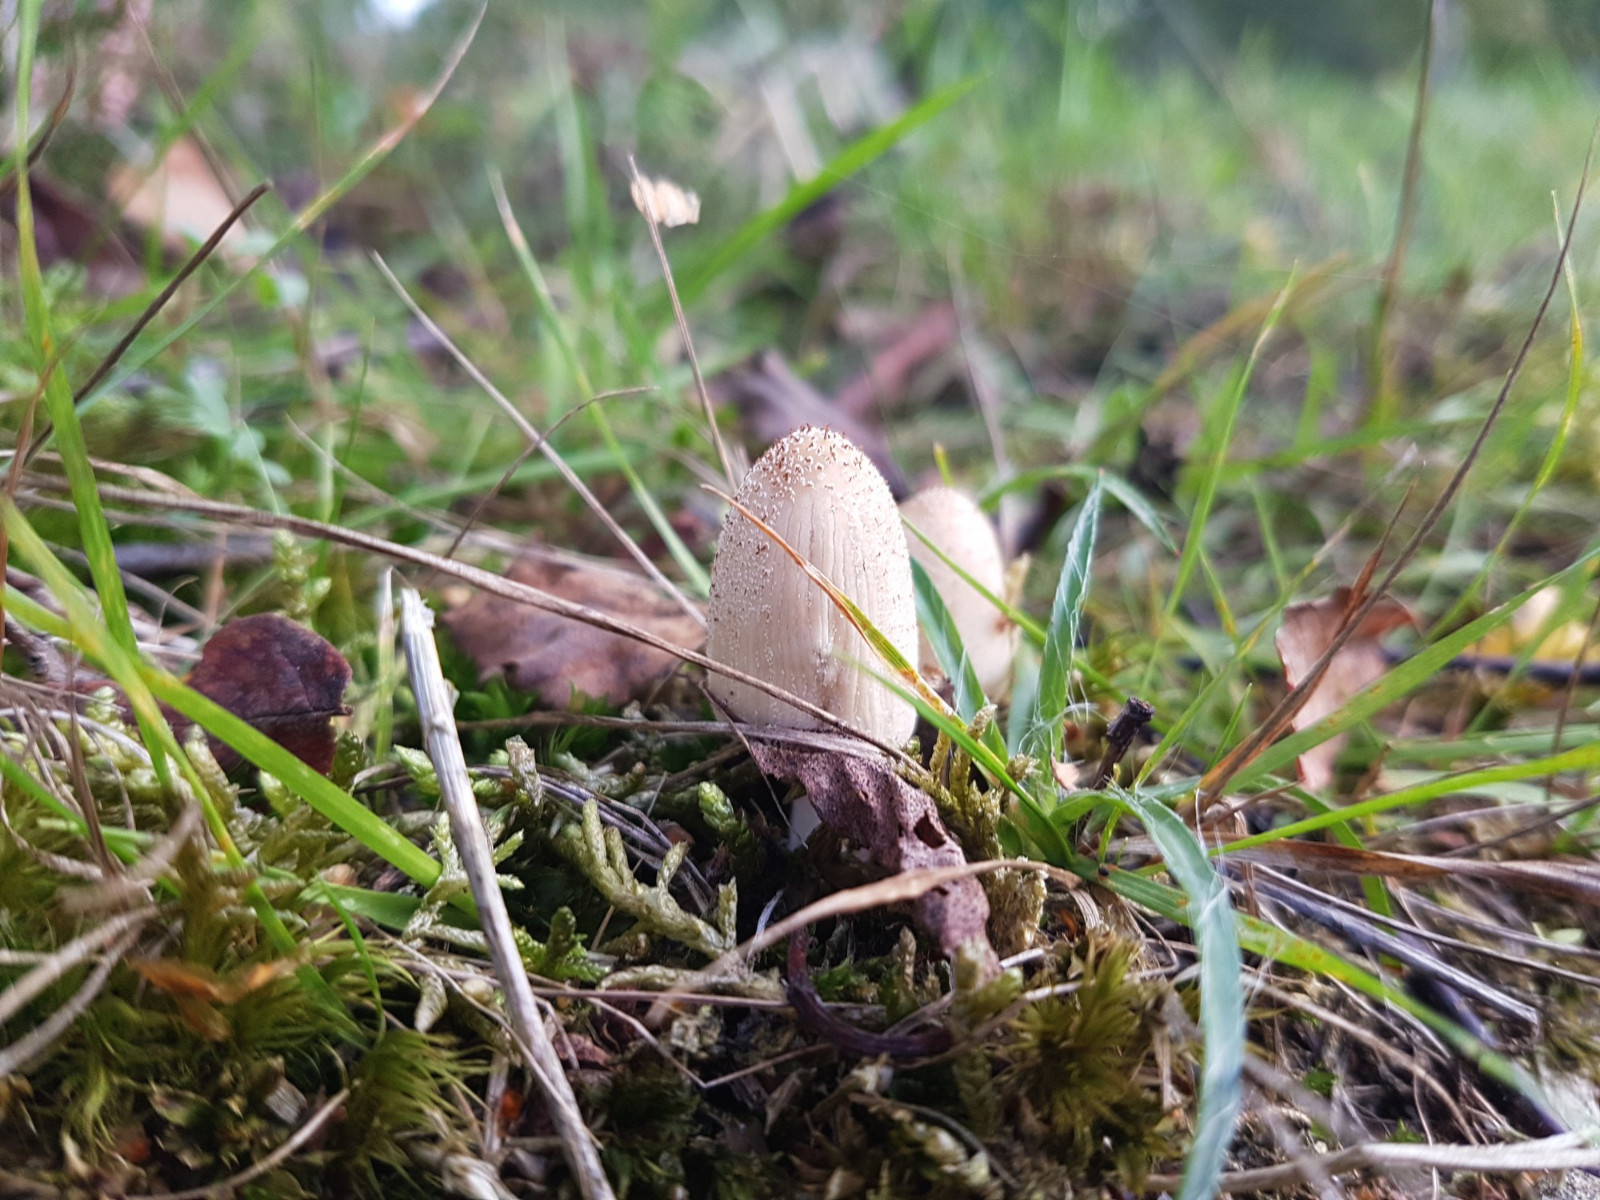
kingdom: Fungi
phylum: Basidiomycota
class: Agaricomycetes
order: Agaricales
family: Psathyrellaceae
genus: Coprinellus
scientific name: Coprinellus
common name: blækhat
